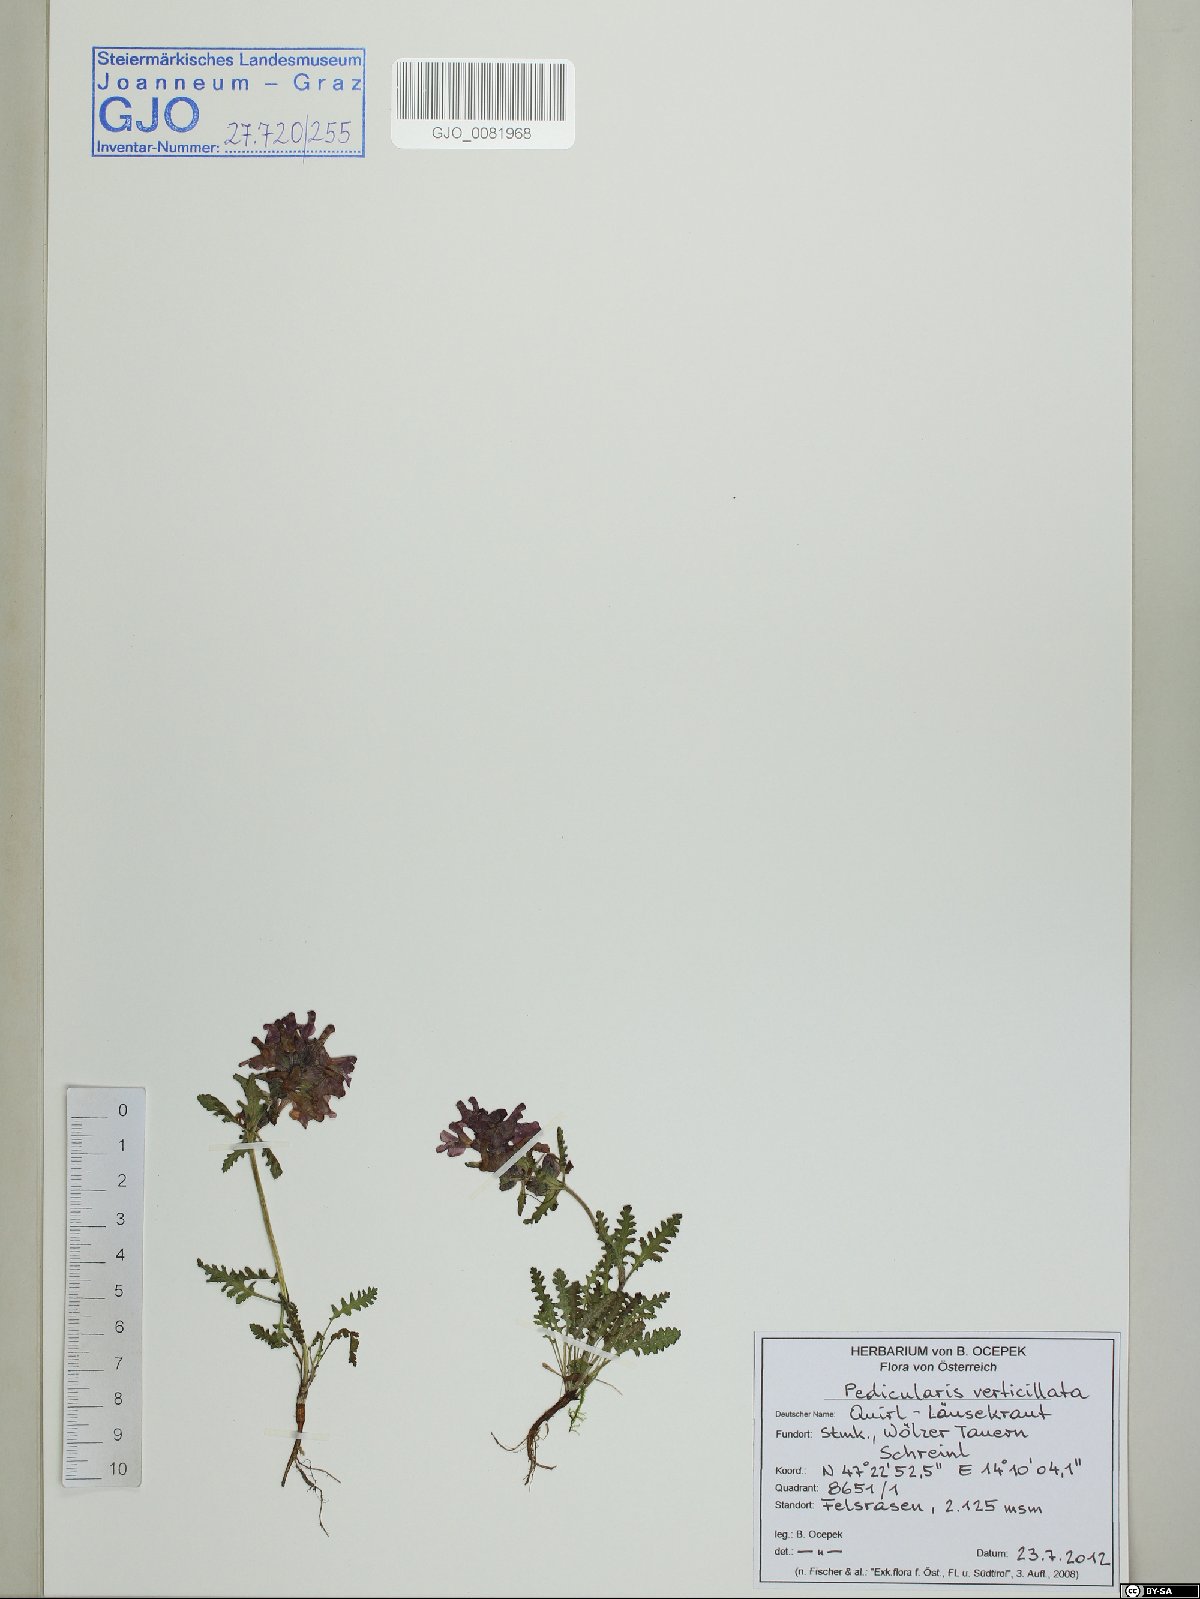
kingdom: Plantae
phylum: Tracheophyta
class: Magnoliopsida
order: Lamiales
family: Orobanchaceae
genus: Pedicularis
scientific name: Pedicularis verticillata
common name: Whorled lousewort
